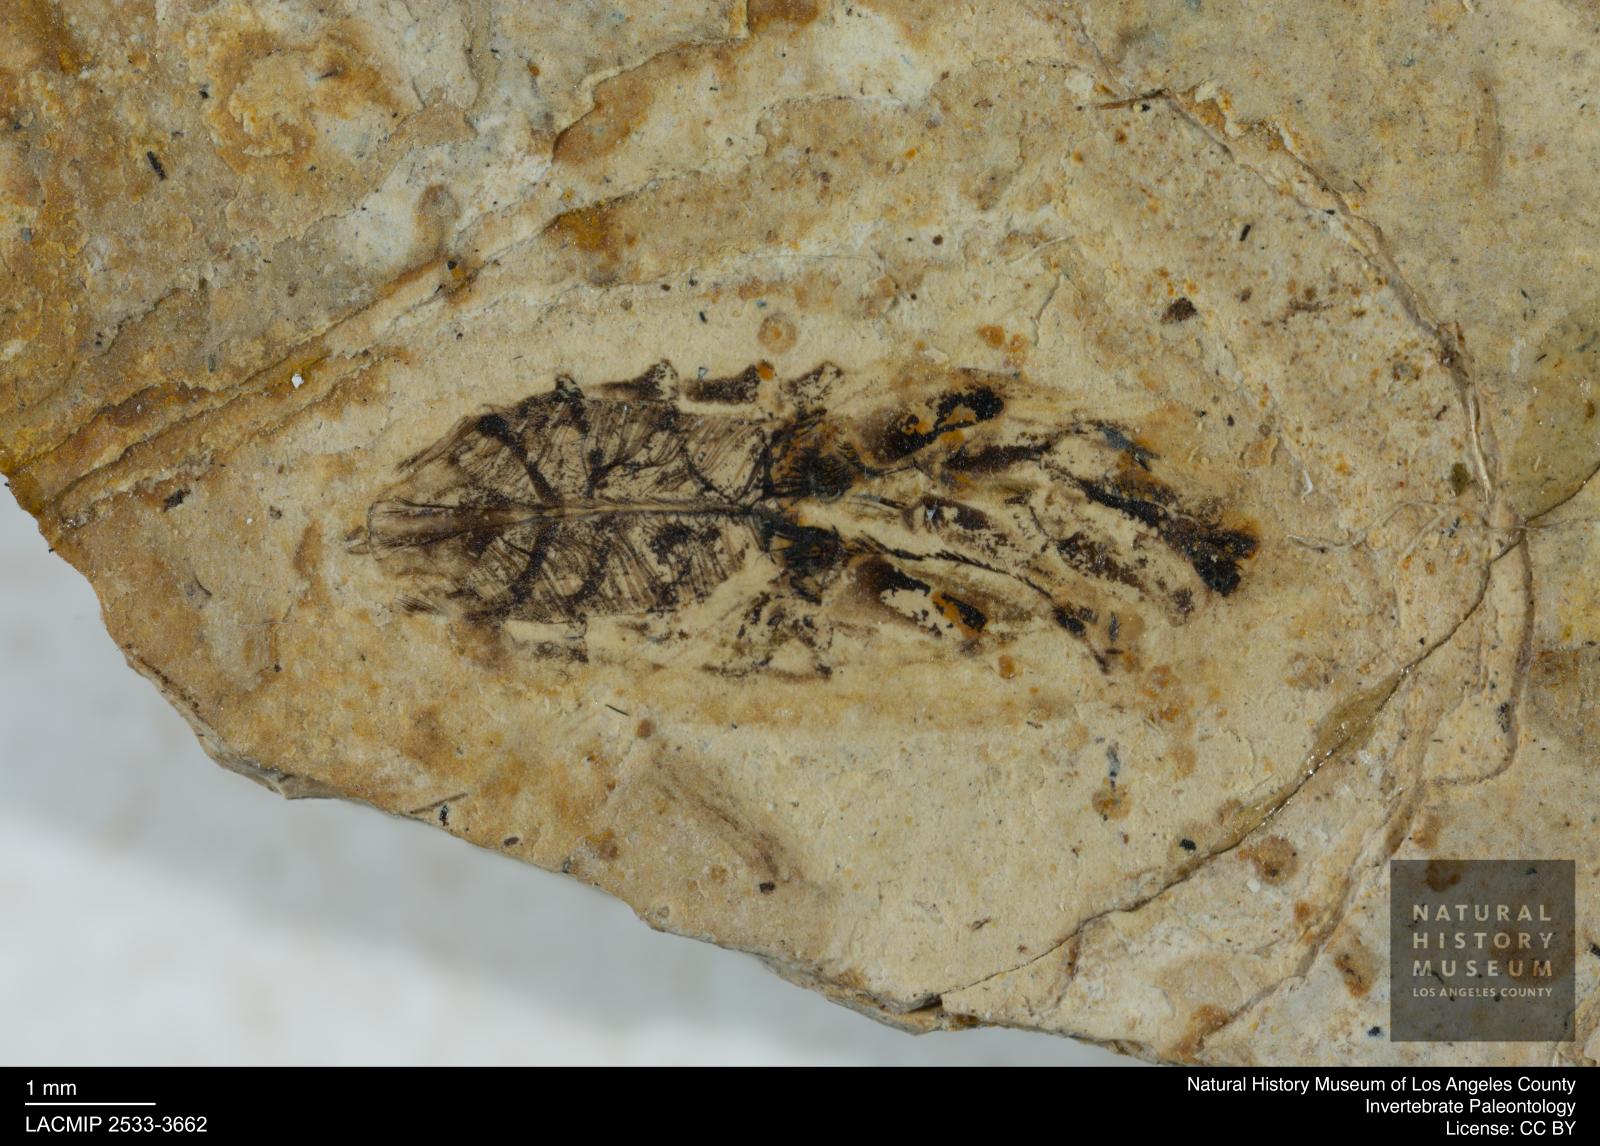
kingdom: Animalia
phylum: Arthropoda
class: Insecta
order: Hemiptera
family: Notonectidae
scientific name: Notonectidae
